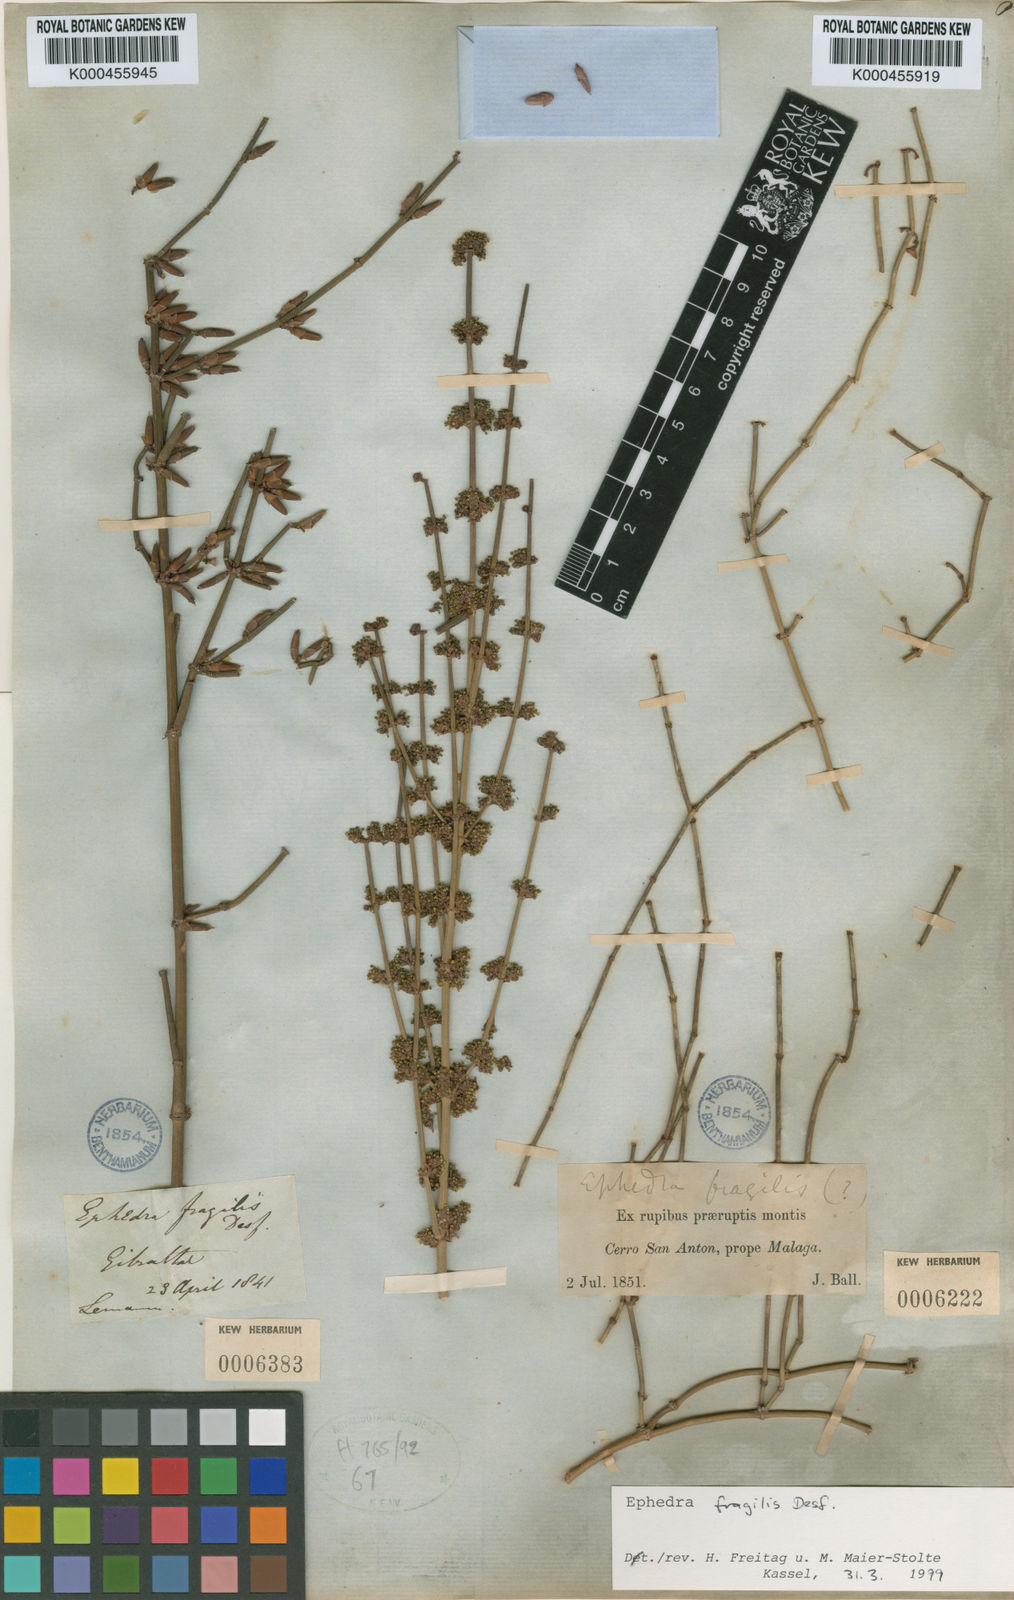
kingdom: Plantae
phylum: Tracheophyta
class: Gnetopsida
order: Ephedrales
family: Ephedraceae
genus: Ephedra
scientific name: Ephedra fragilis
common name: Joint pine
